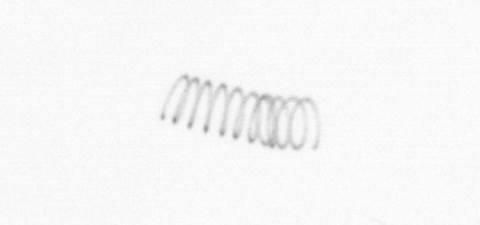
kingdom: Chromista
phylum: Ochrophyta
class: Bacillariophyceae
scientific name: Bacillariophyceae
